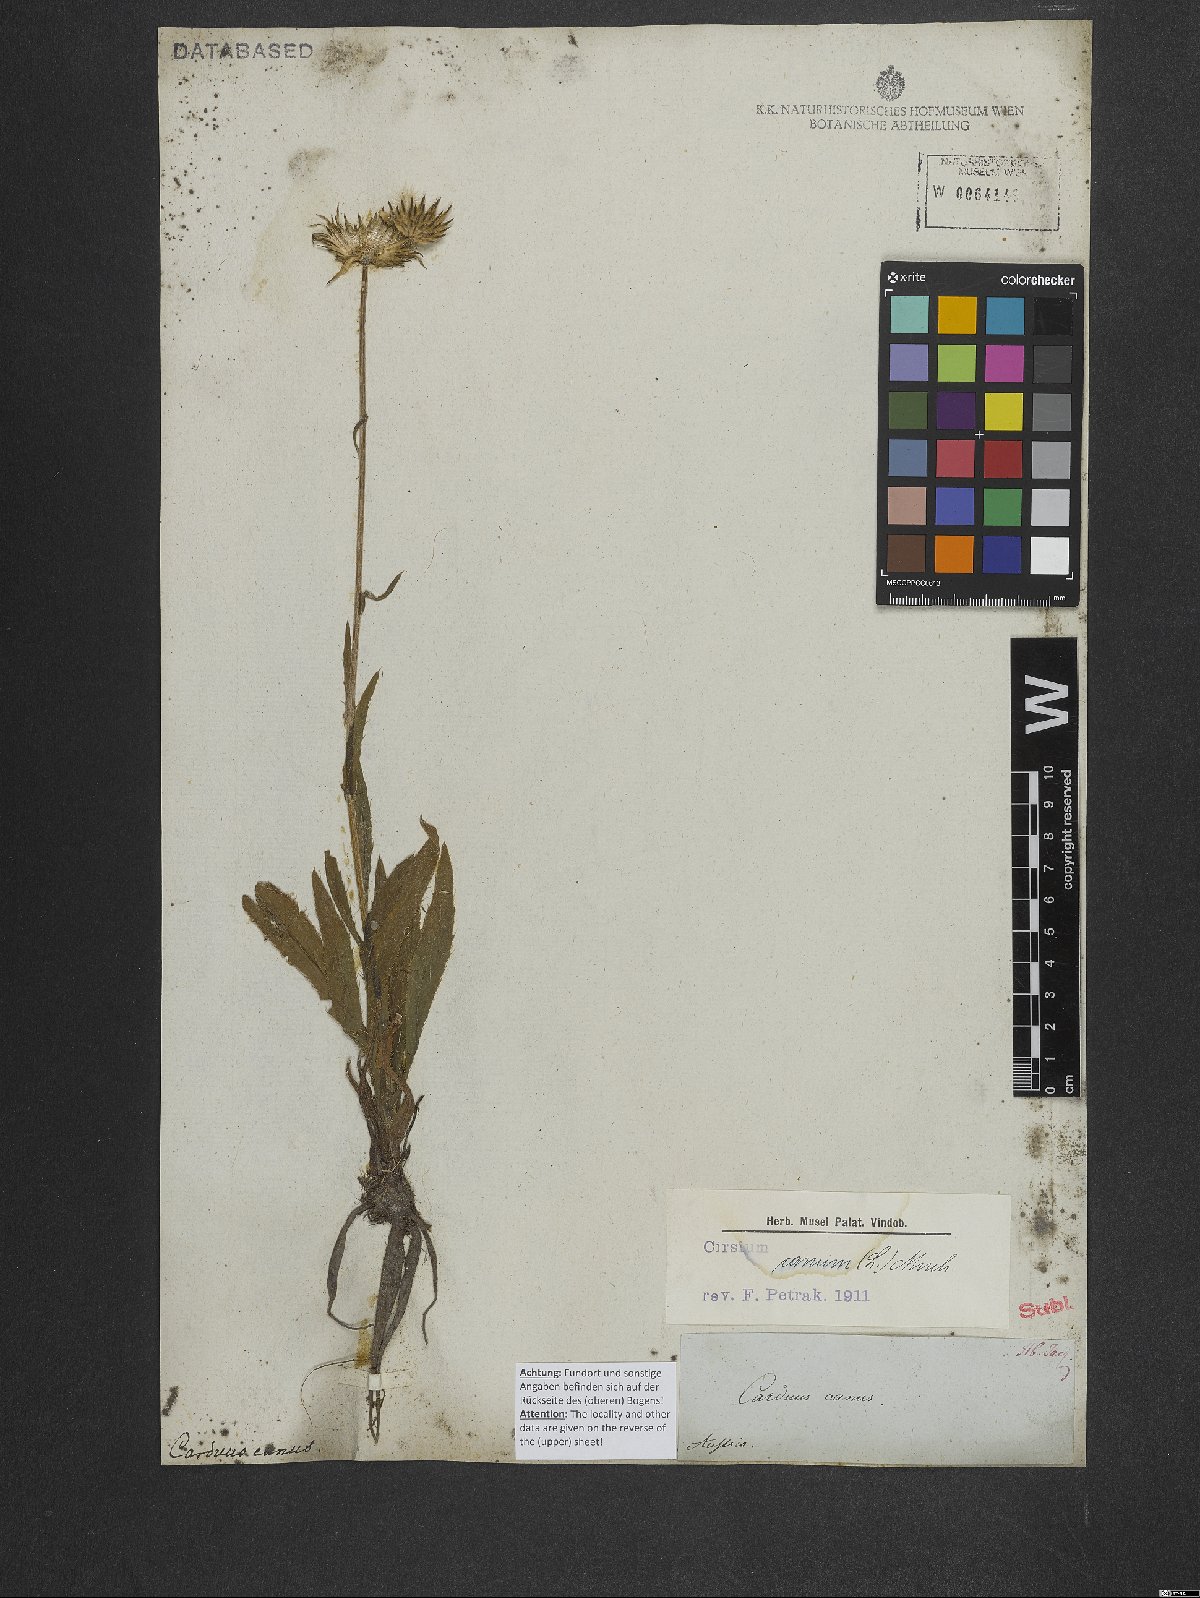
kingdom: Plantae
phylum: Tracheophyta
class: Magnoliopsida
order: Asterales
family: Asteraceae
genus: Cirsium
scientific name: Cirsium canum
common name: Queen anne's thistle
